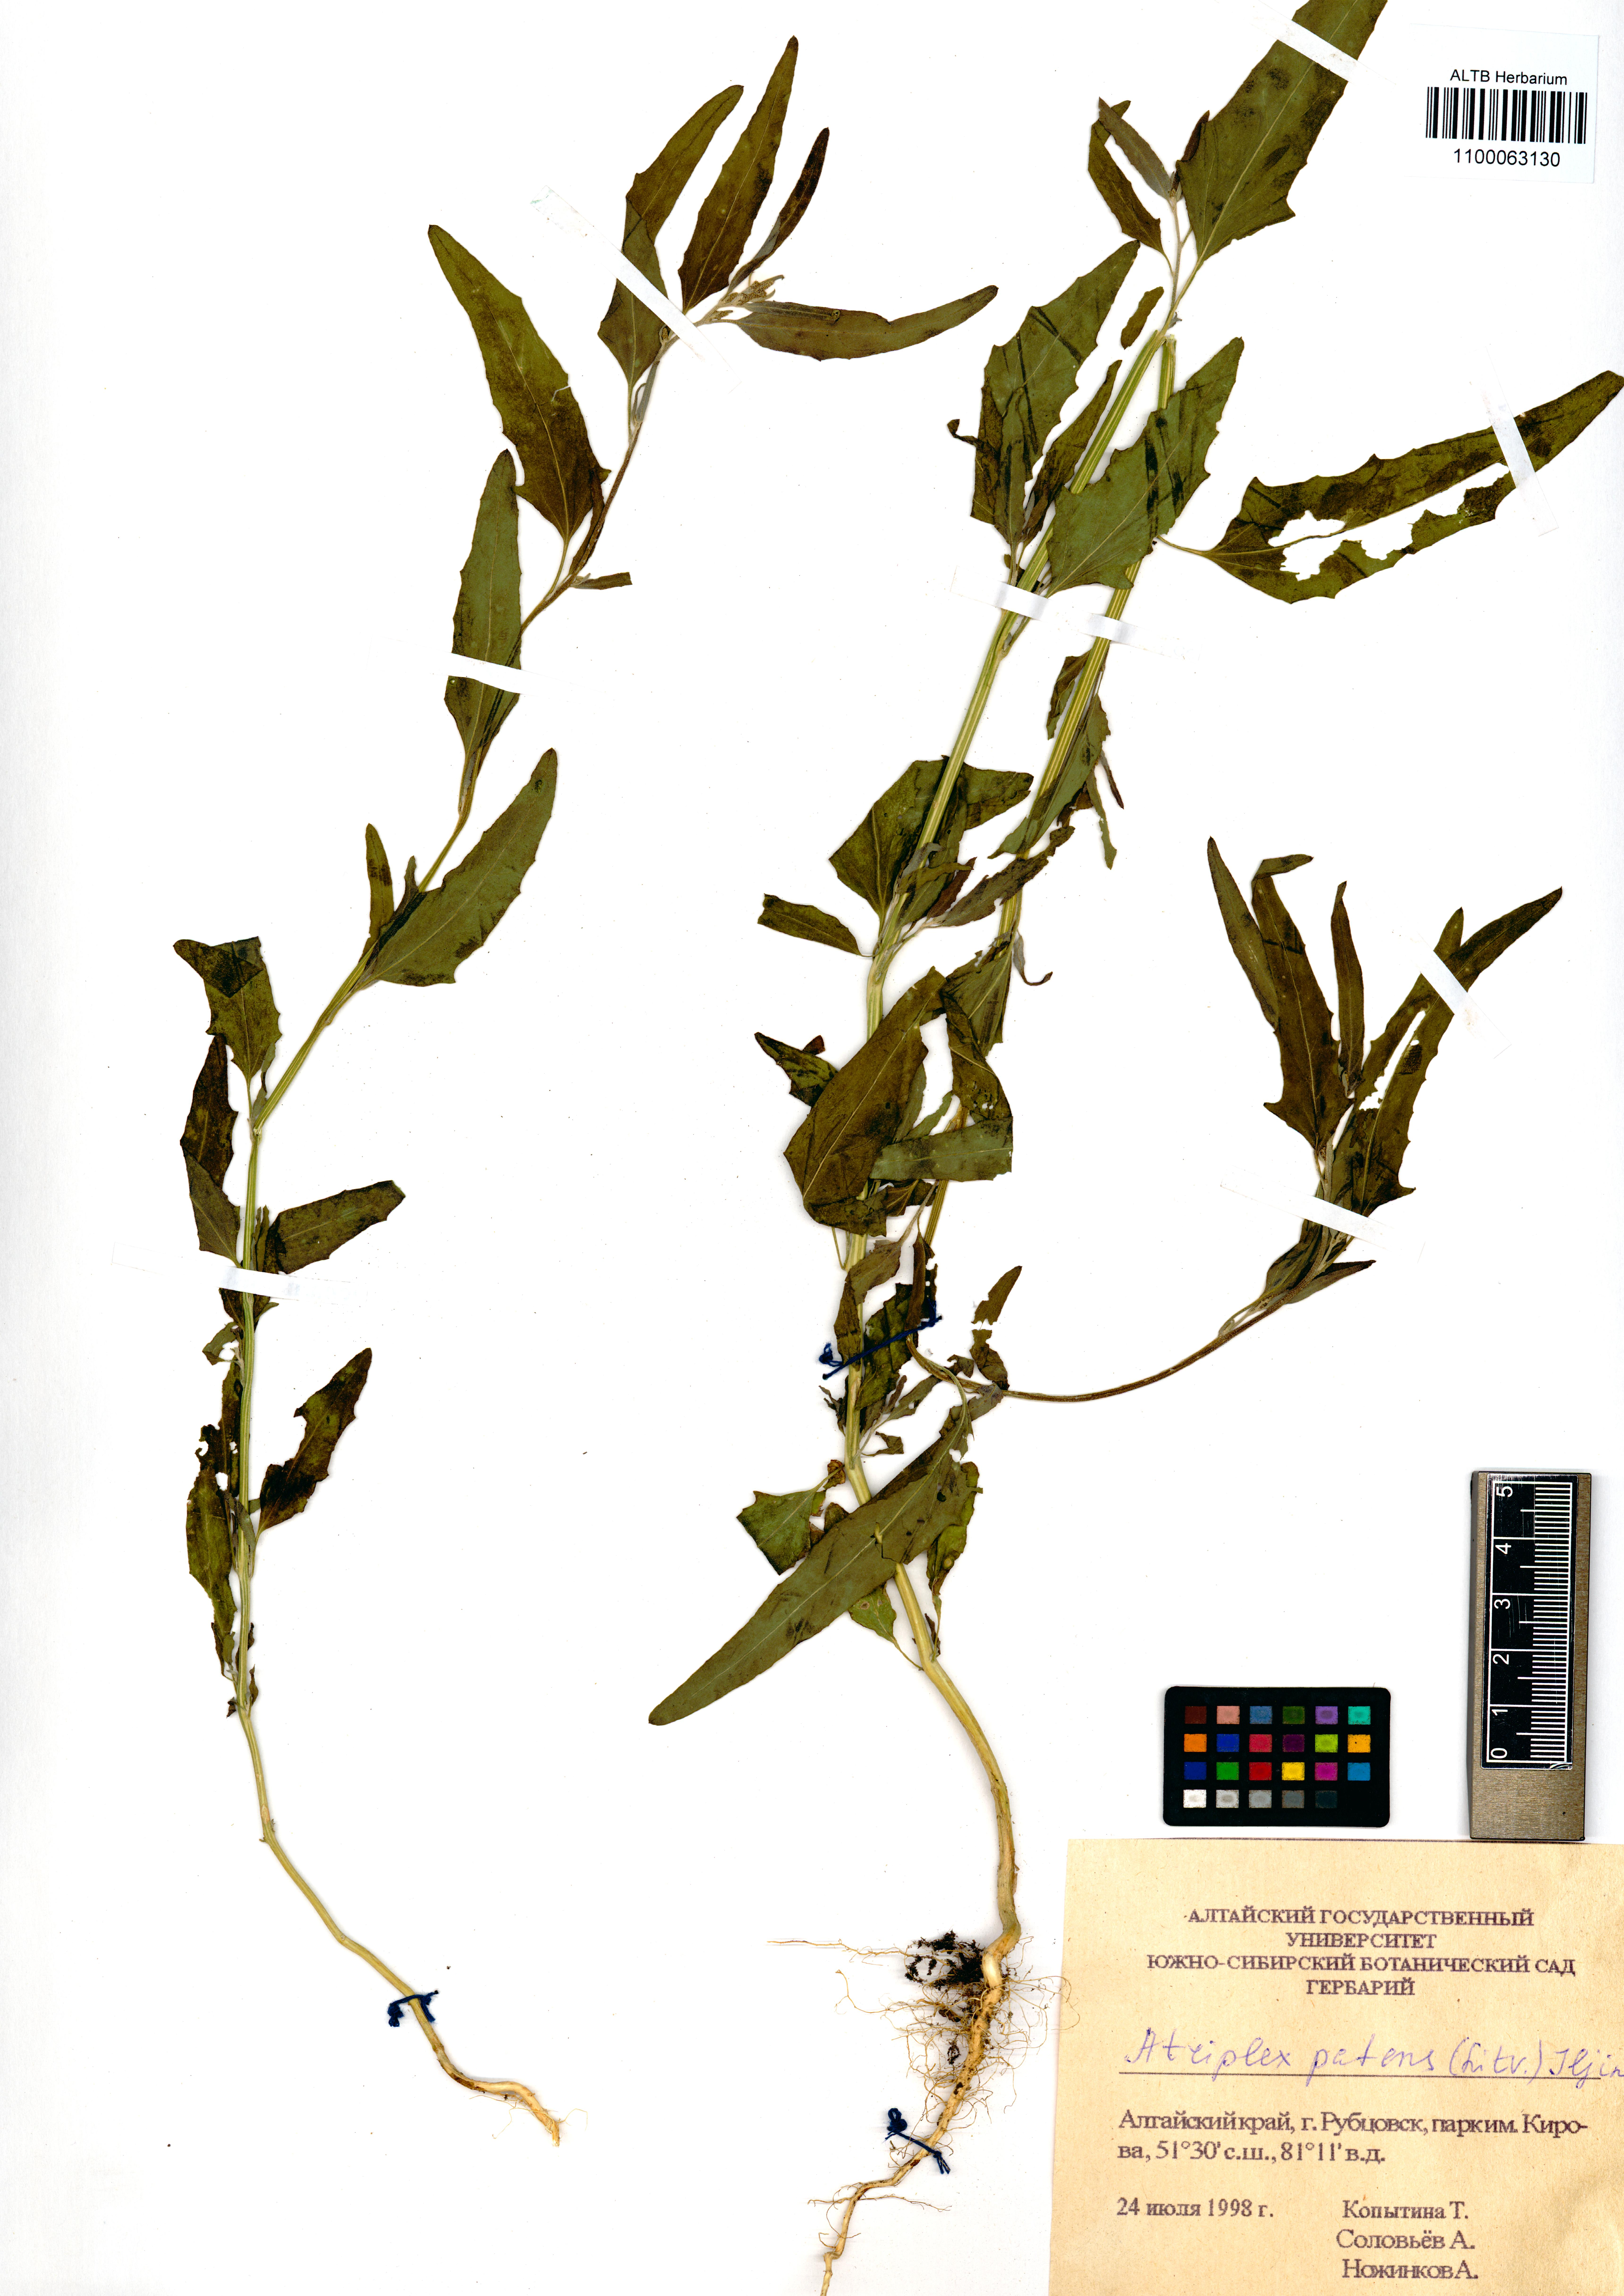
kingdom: Plantae
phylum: Tracheophyta
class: Magnoliopsida
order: Caryophyllales
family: Amaranthaceae
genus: Atriplex
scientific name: Atriplex patens
